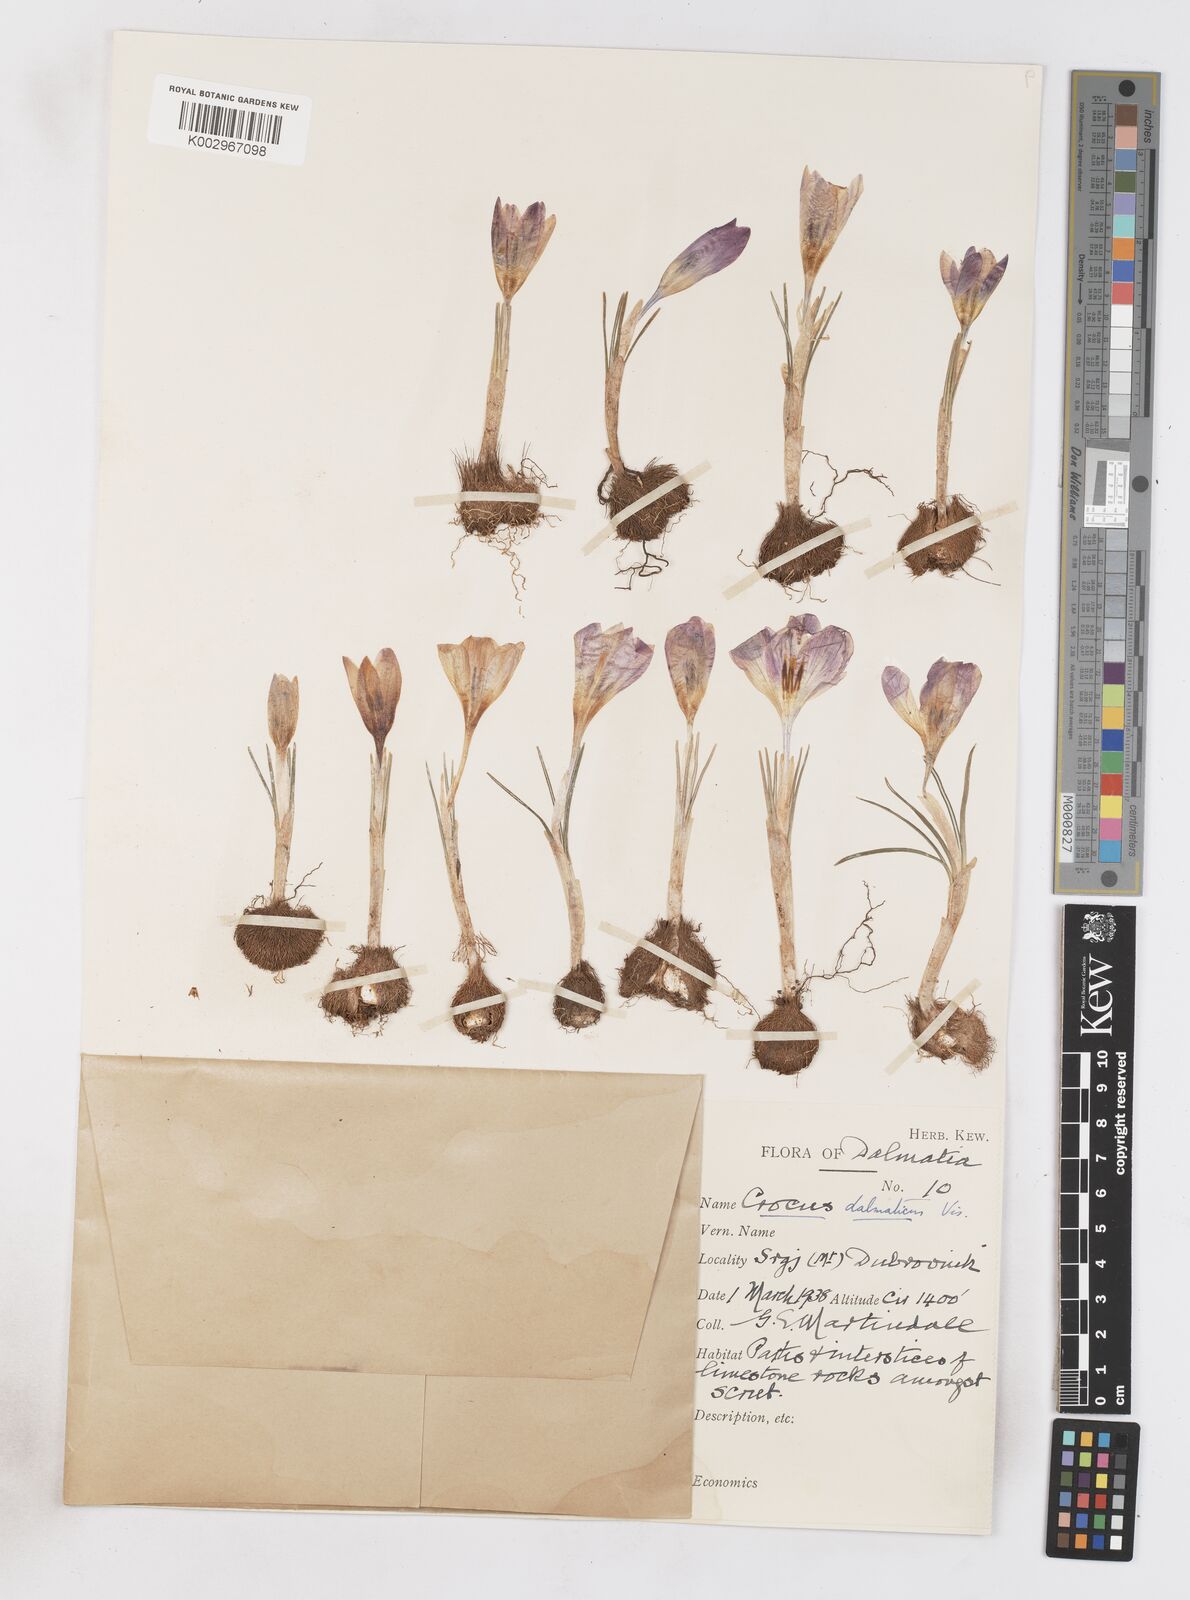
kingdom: Plantae
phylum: Tracheophyta
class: Liliopsida
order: Asparagales
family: Iridaceae
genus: Crocus
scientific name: Crocus dalmaticus
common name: Dalmatian saffron
